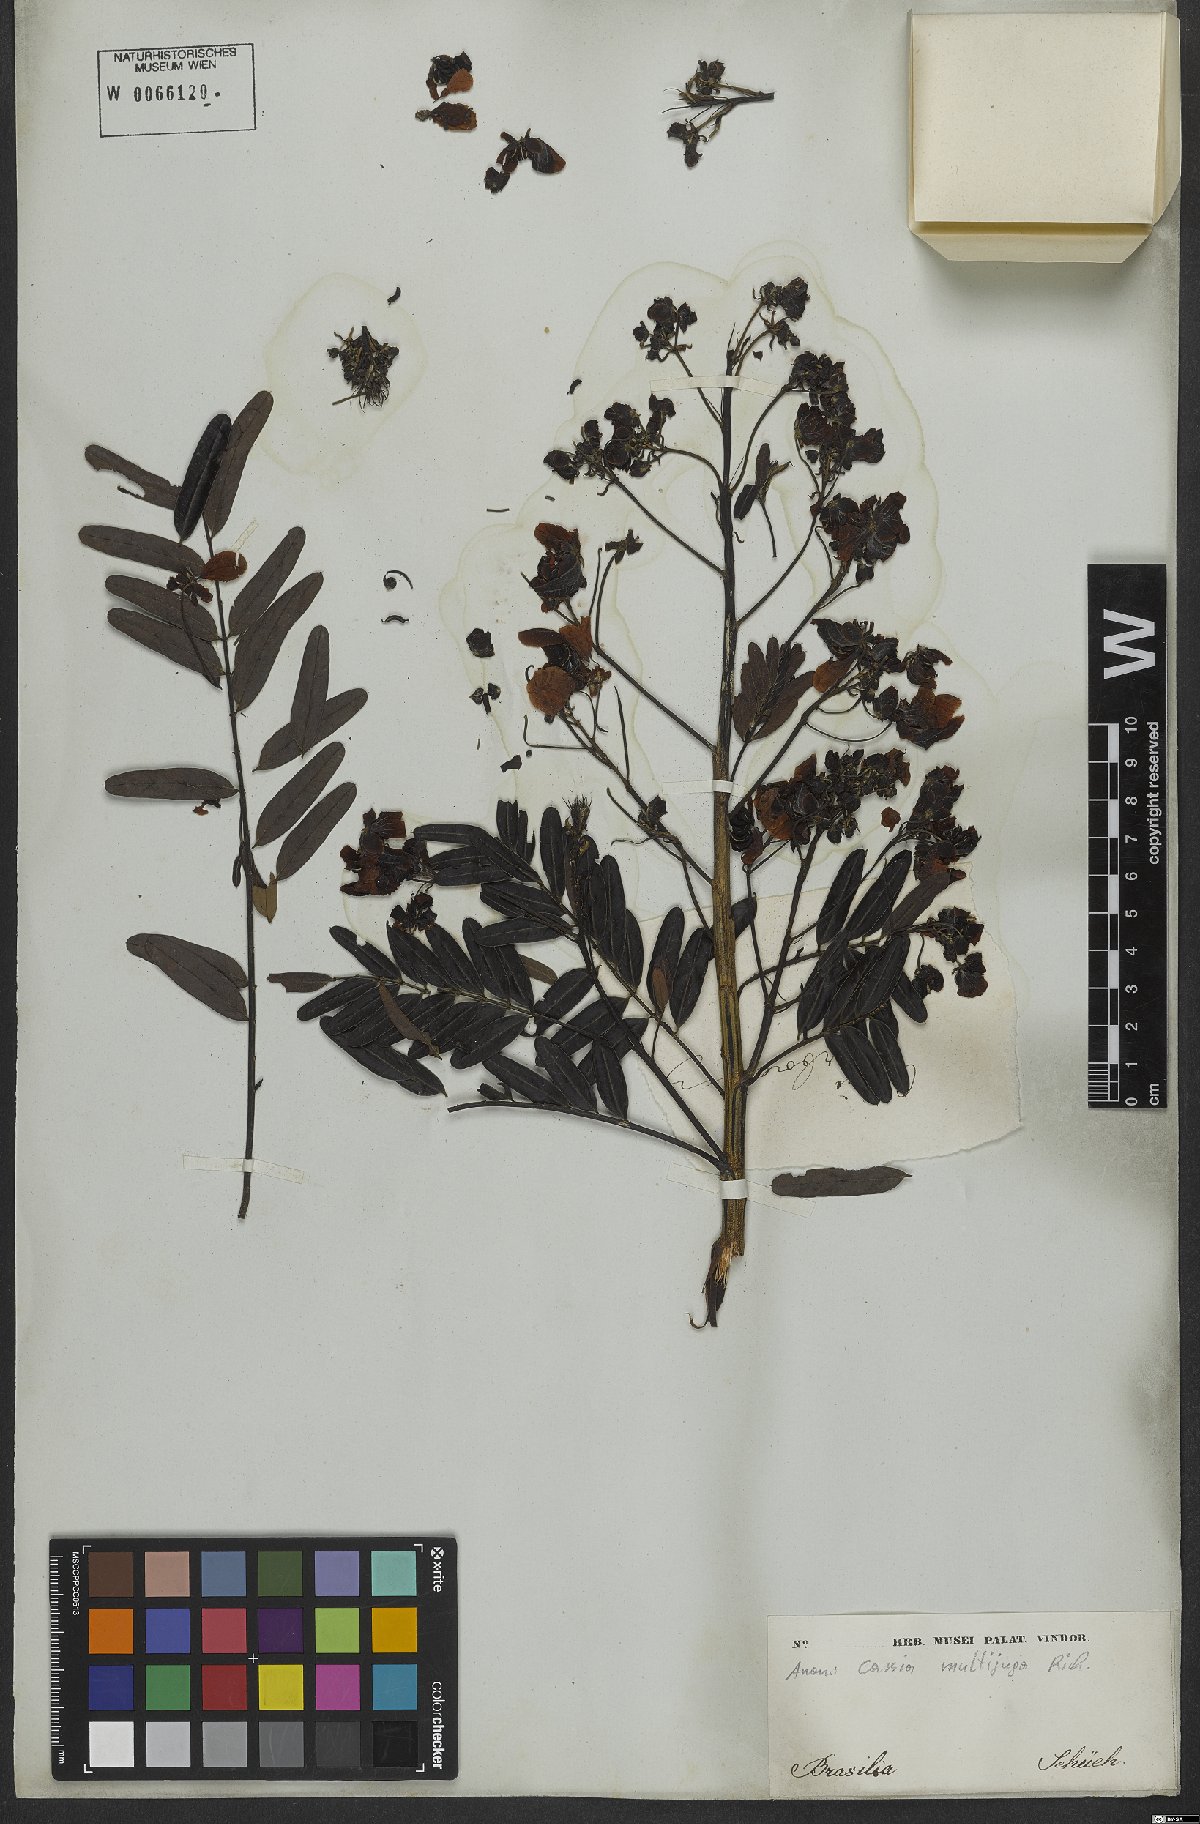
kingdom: Plantae
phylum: Tracheophyta
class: Magnoliopsida
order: Fabales
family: Fabaceae
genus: Senna
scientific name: Senna multijuga
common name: False sicklepod
